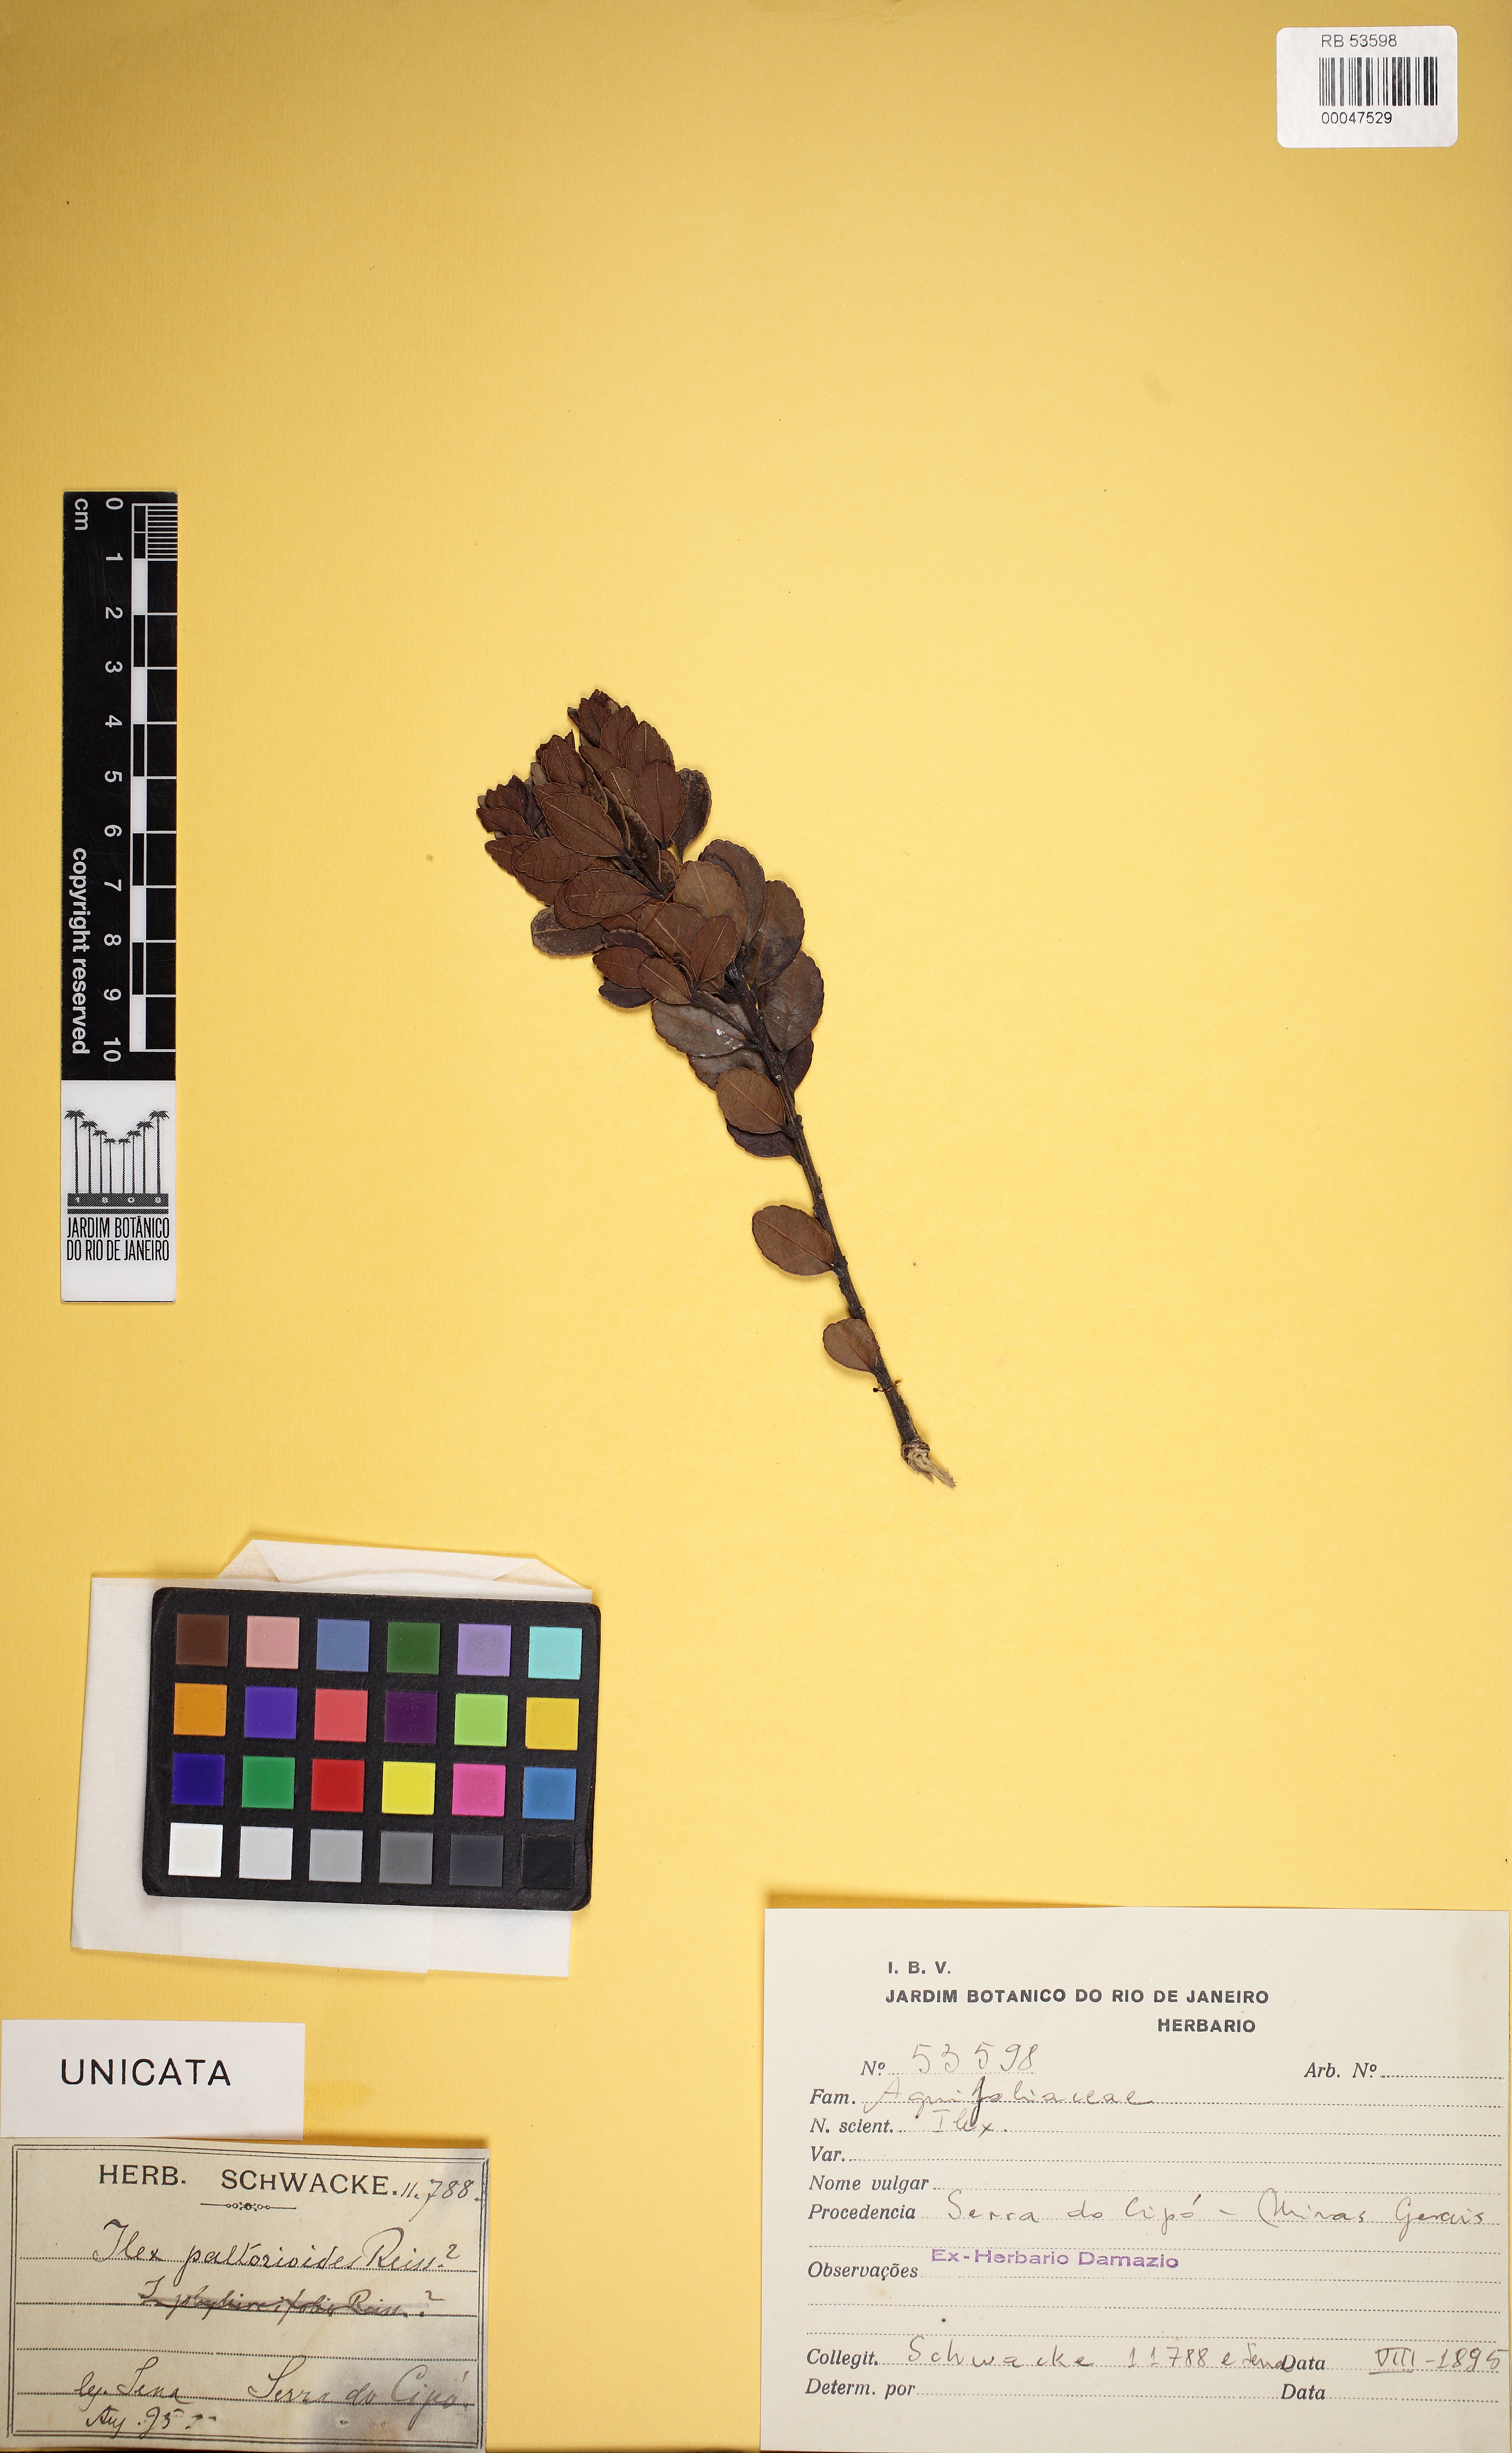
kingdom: Plantae
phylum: Tracheophyta
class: Magnoliopsida
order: Aquifoliales
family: Aquifoliaceae
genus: Ilex
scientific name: Ilex paltorioides
